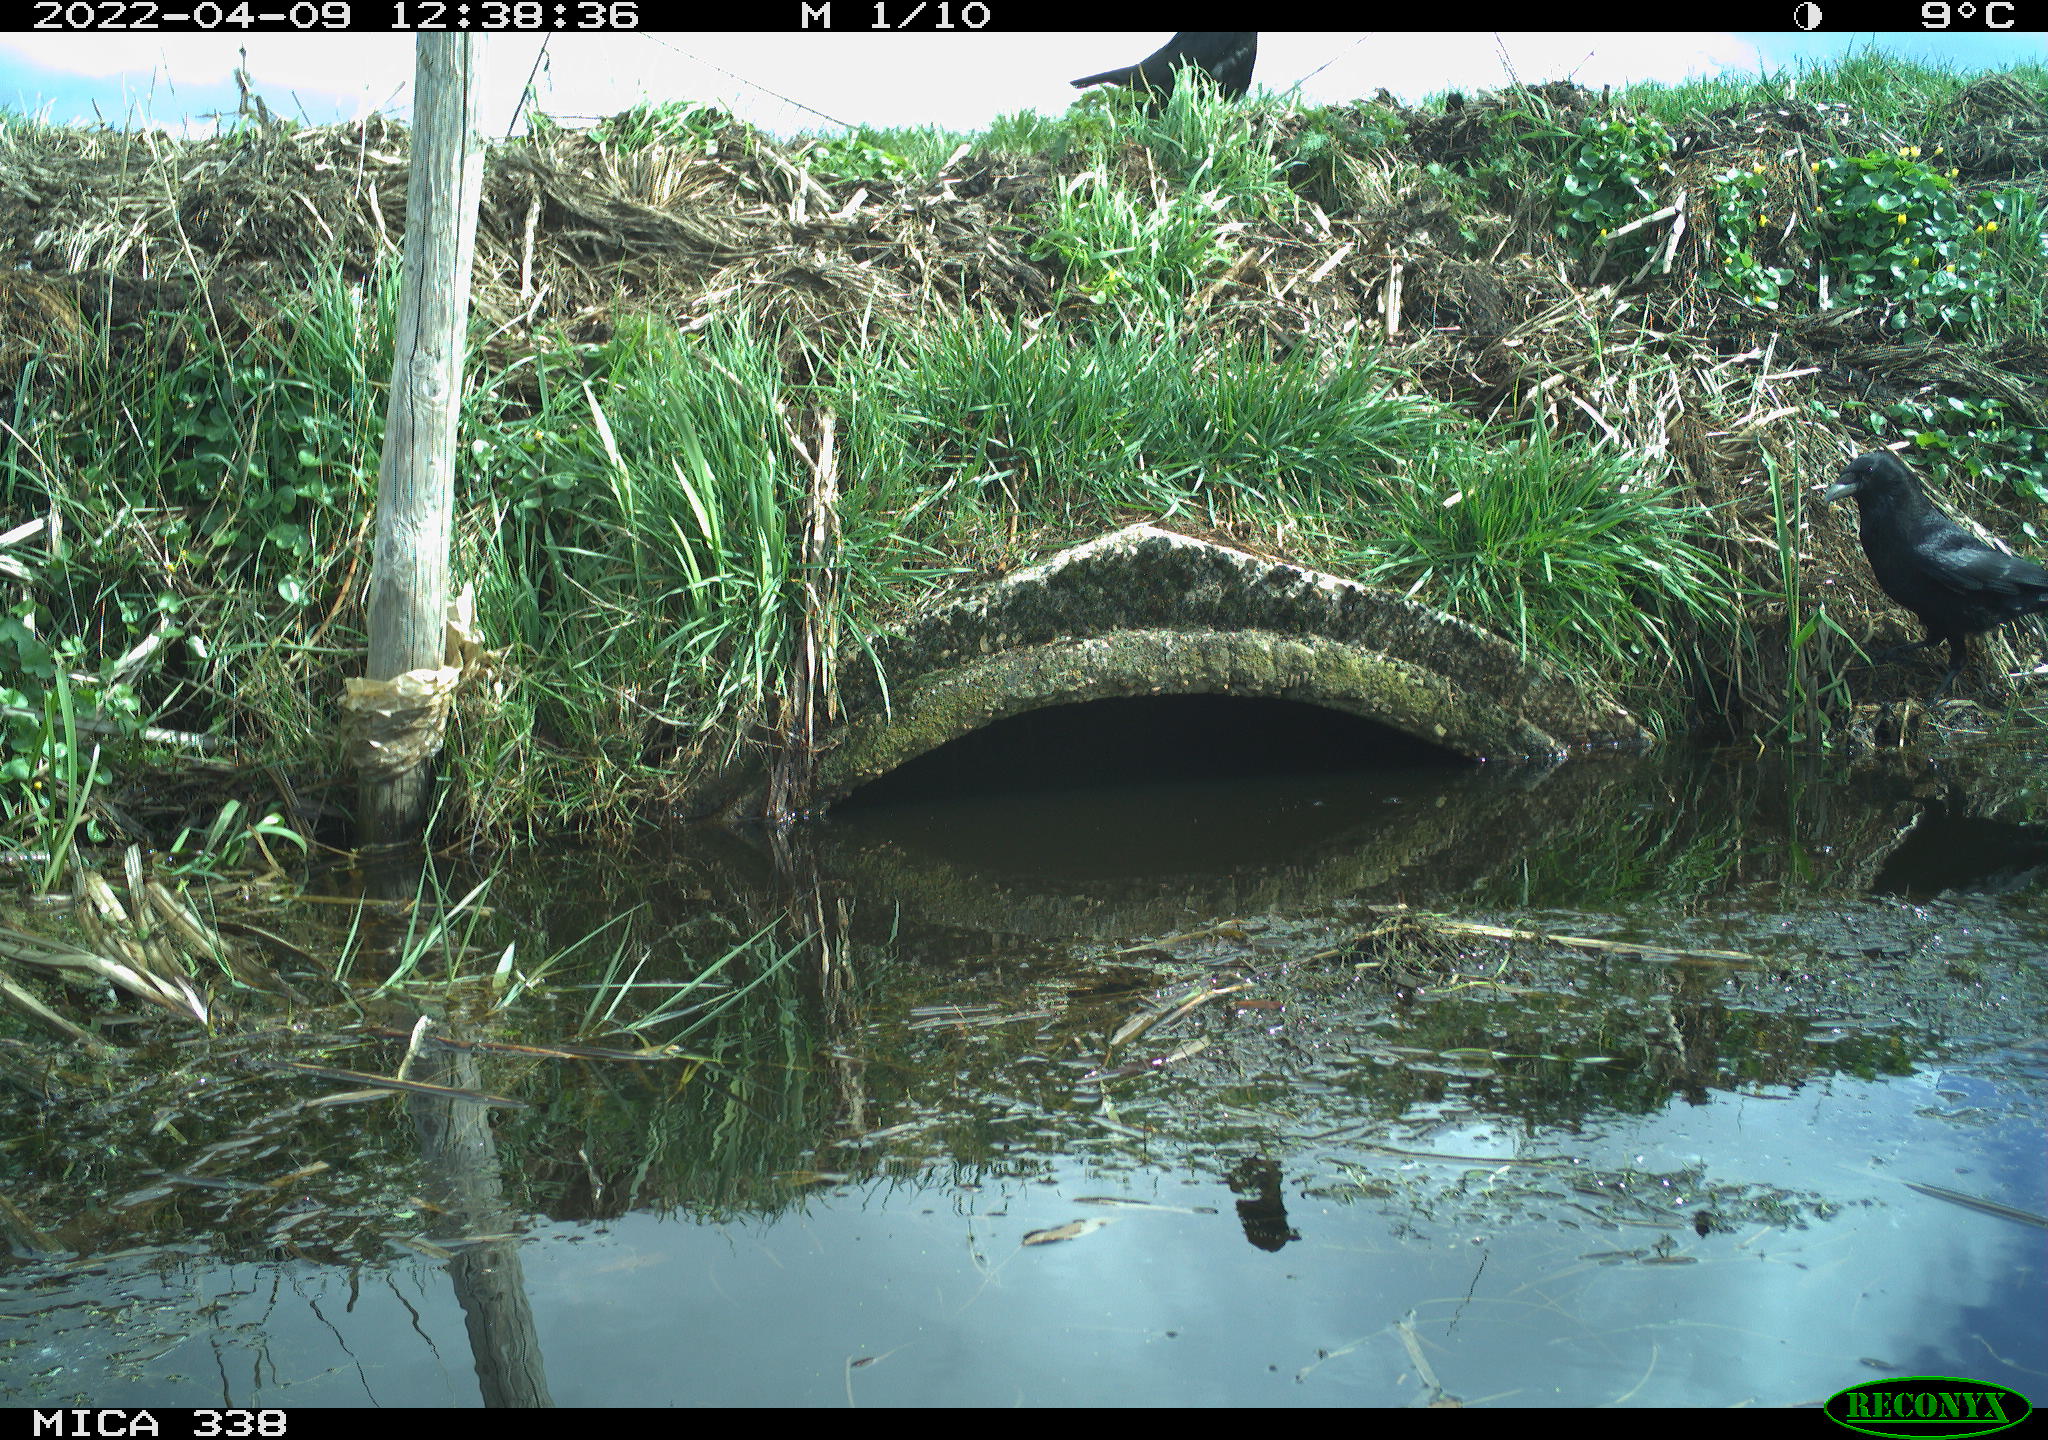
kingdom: Animalia
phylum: Chordata
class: Aves
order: Passeriformes
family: Corvidae
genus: Corvus
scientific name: Corvus corone
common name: Carrion crow
